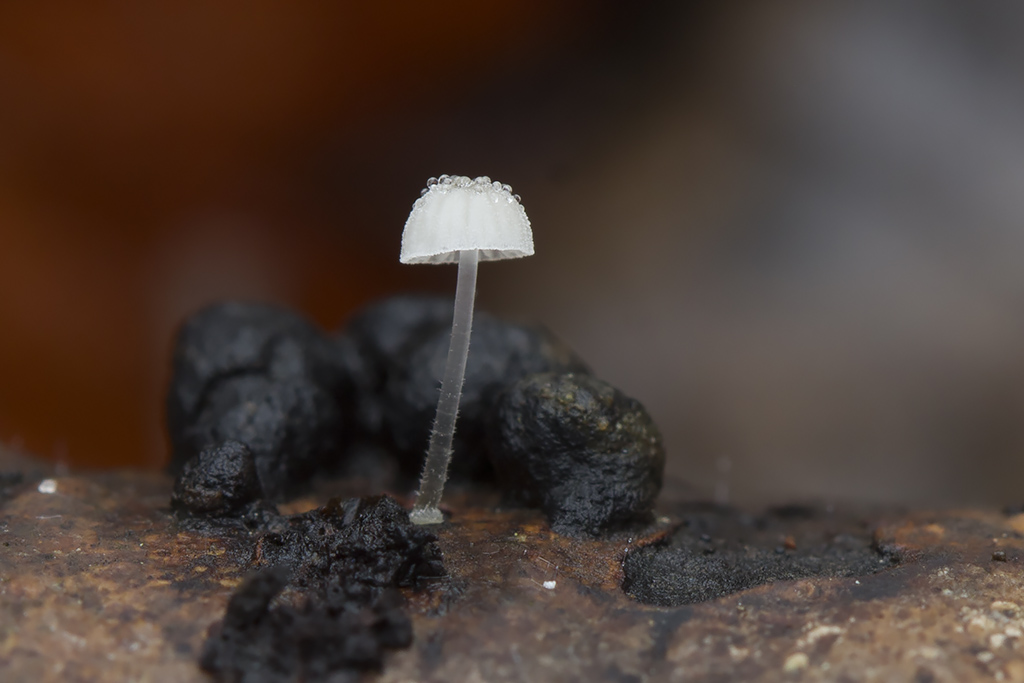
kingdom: Fungi
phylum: Basidiomycota
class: Agaricomycetes
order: Agaricales
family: Mycenaceae
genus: Mycena
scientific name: Mycena tenerrima
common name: pudret huesvamp
